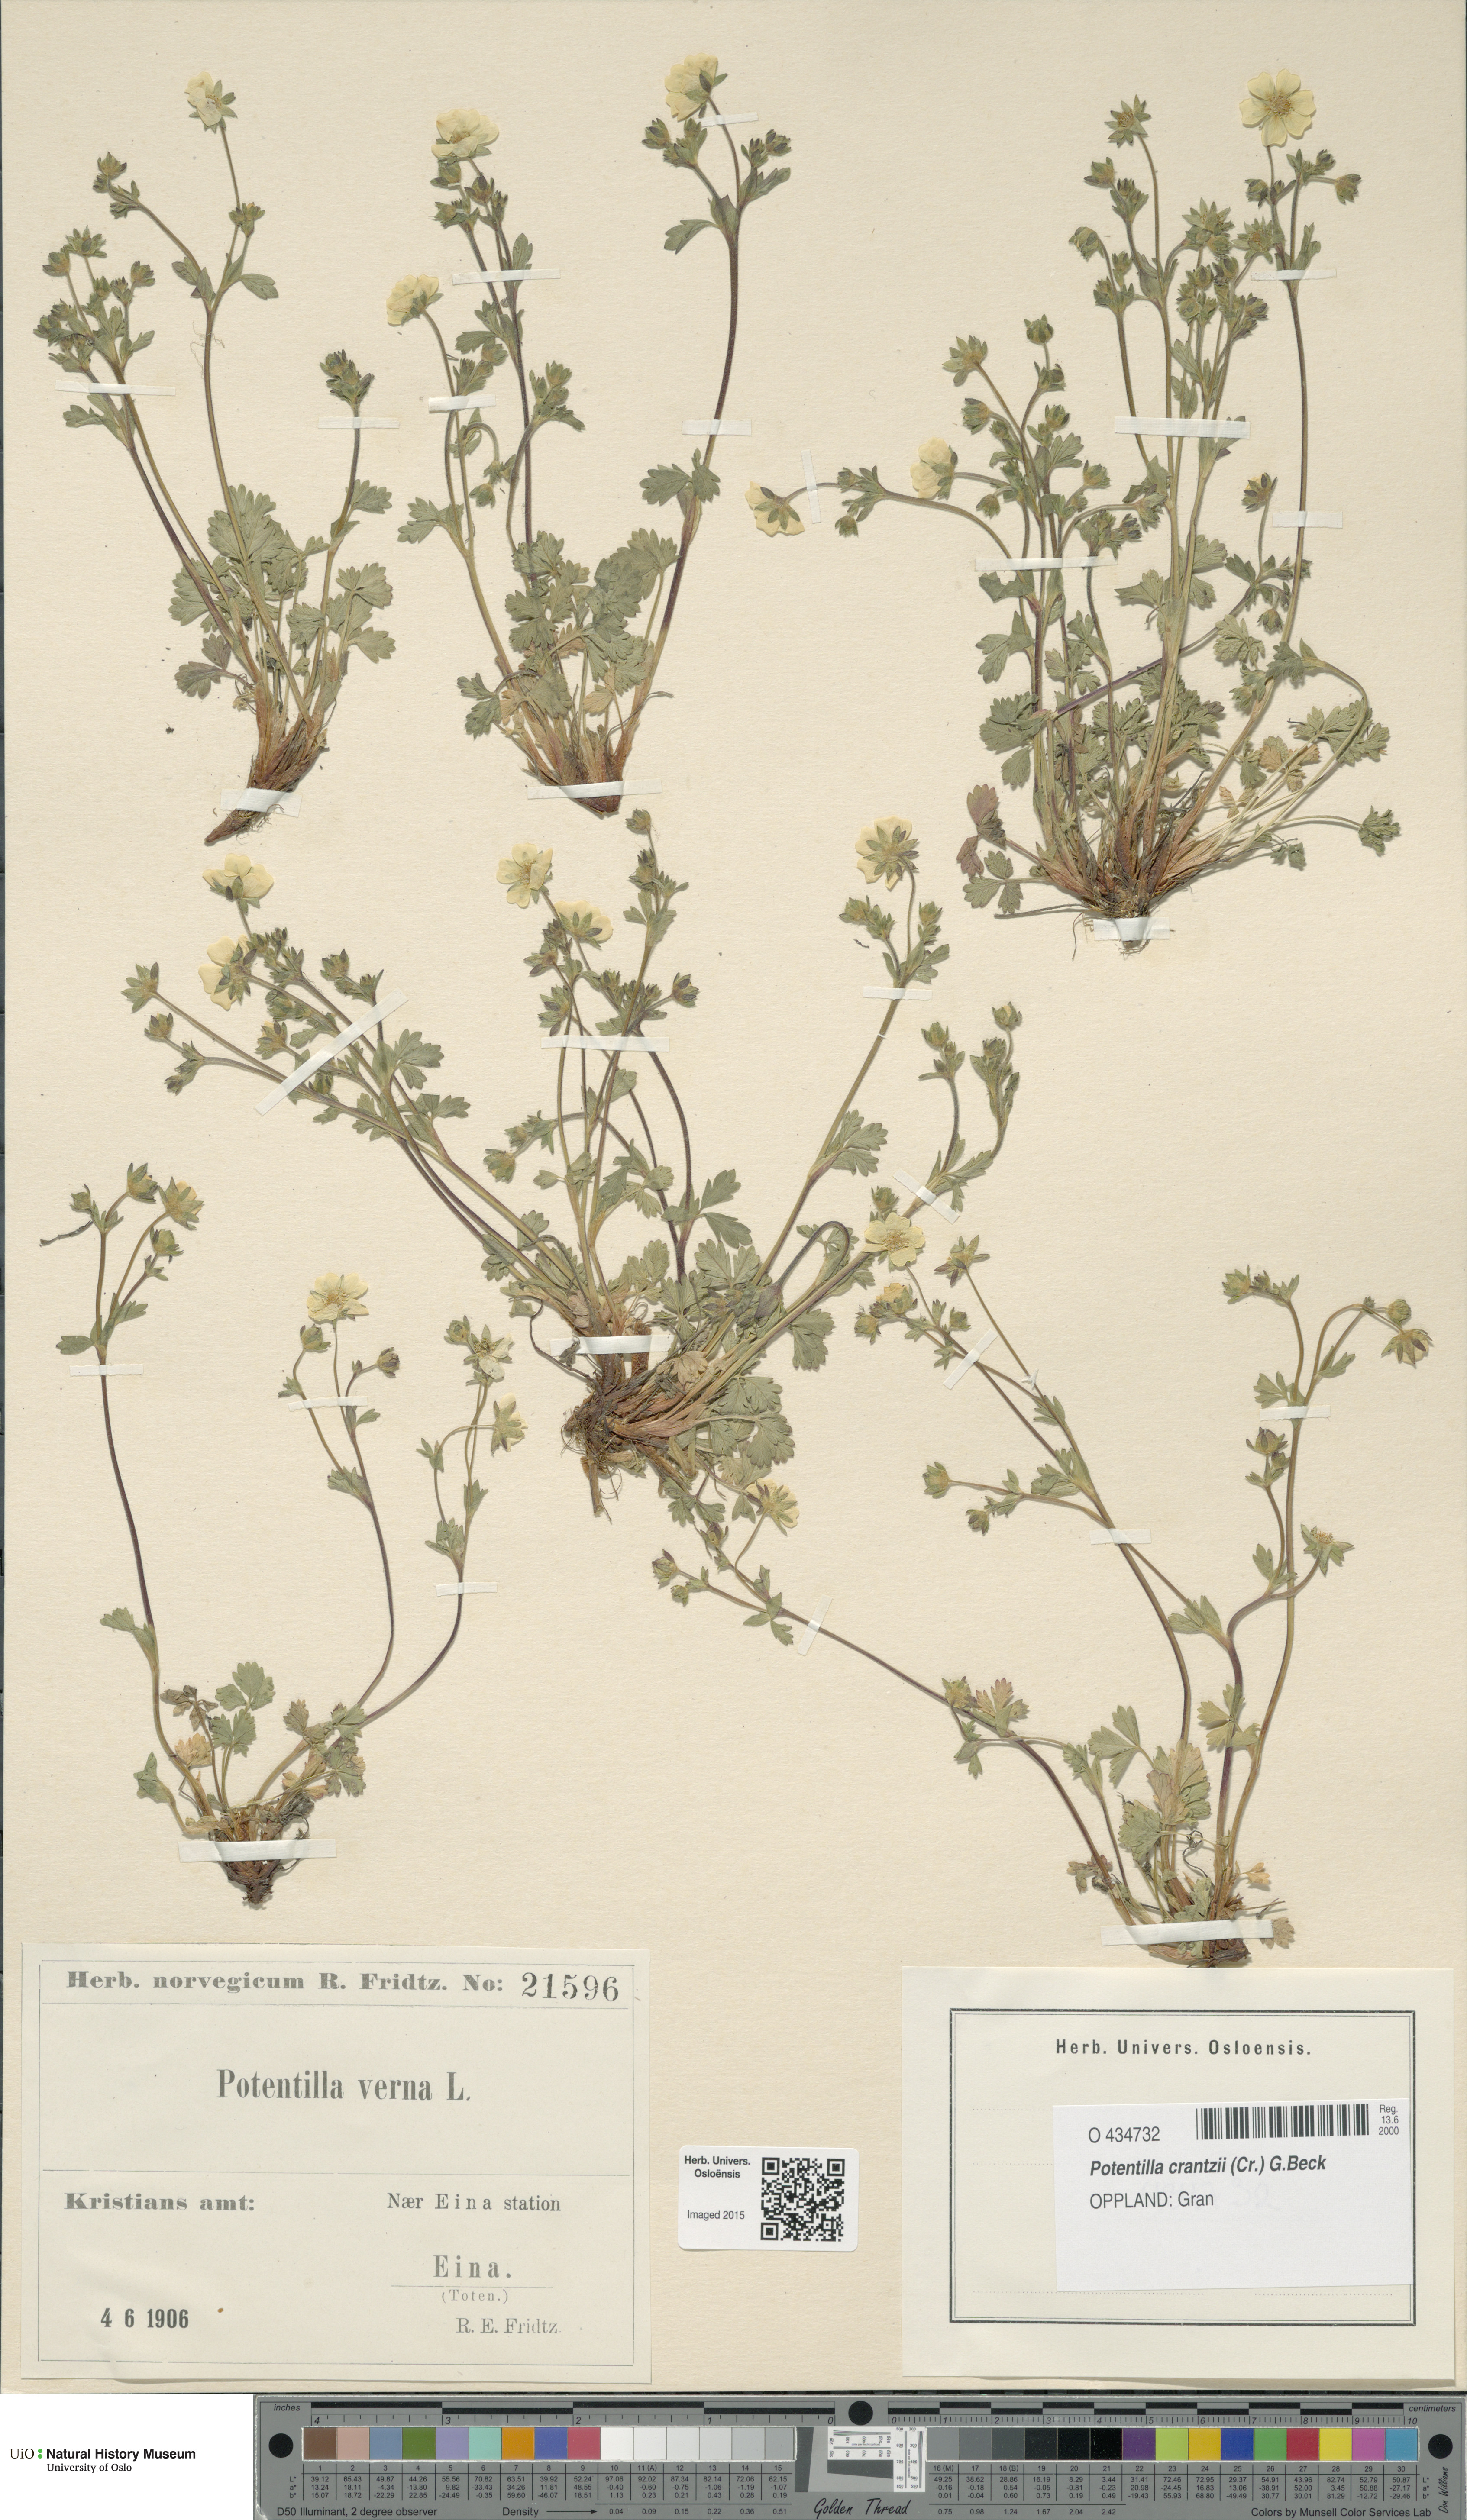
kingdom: Plantae
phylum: Tracheophyta
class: Magnoliopsida
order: Rosales
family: Rosaceae
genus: Potentilla
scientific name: Potentilla verna
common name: Spring cinquefoil
